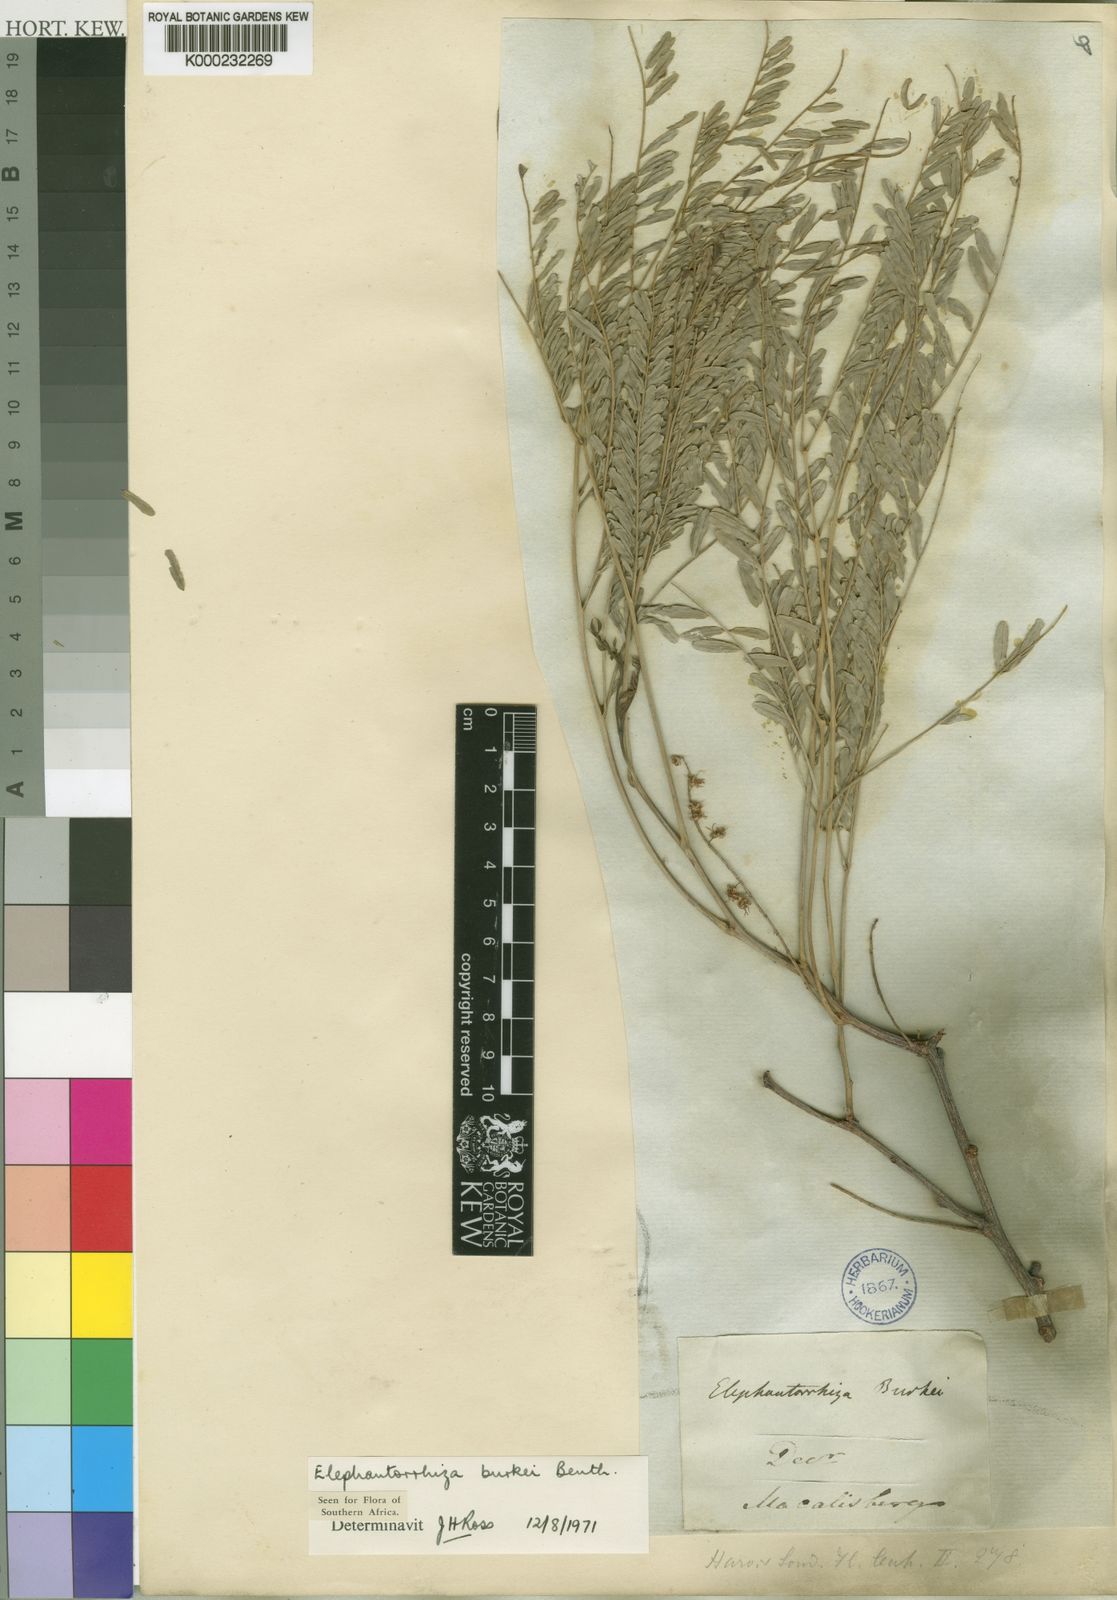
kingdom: Plantae
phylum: Tracheophyta
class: Magnoliopsida
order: Fabales
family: Fabaceae
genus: Elephantorrhiza
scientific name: Elephantorrhiza burkei
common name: Broad-pod elephant-root
